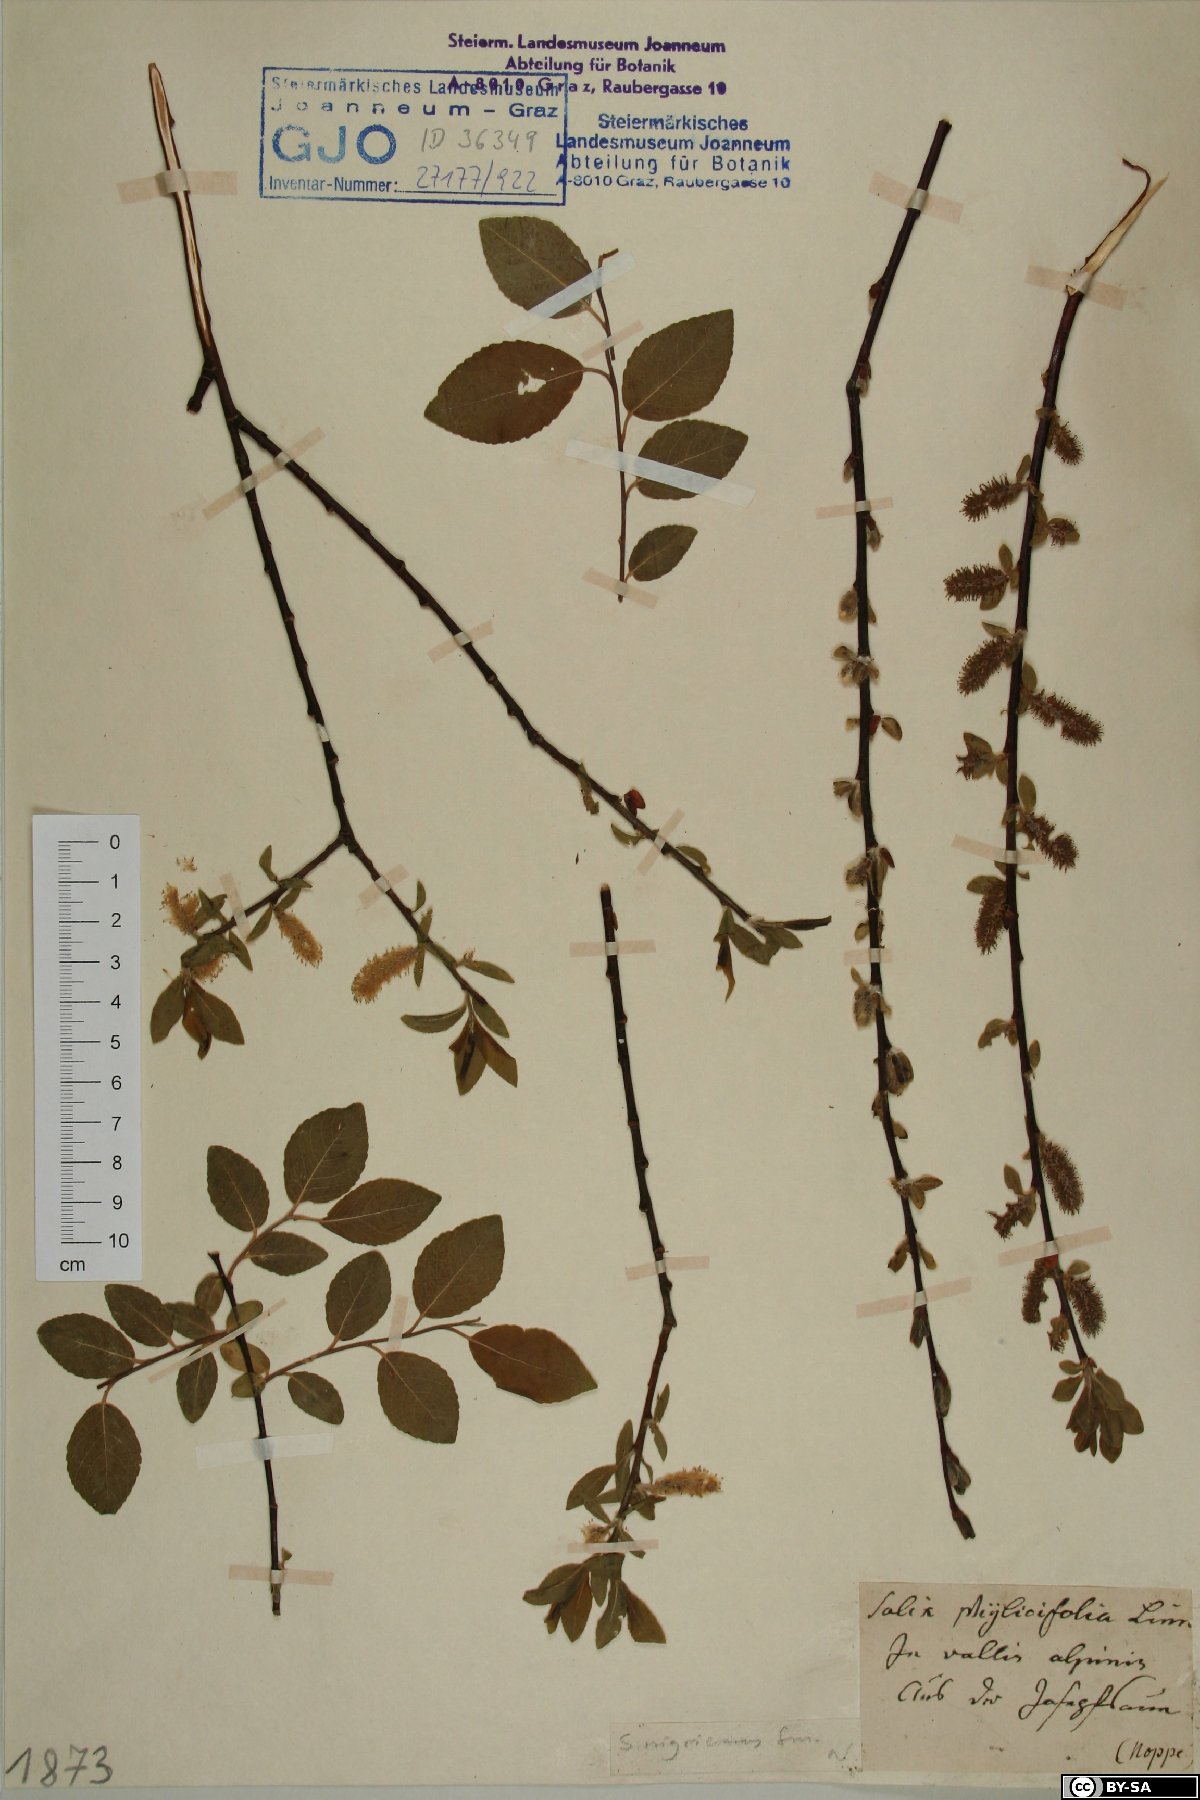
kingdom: Plantae
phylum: Tracheophyta
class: Magnoliopsida
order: Malpighiales
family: Salicaceae
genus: Salix
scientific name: Salix myrsinifolia
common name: Dark-leaved willow
